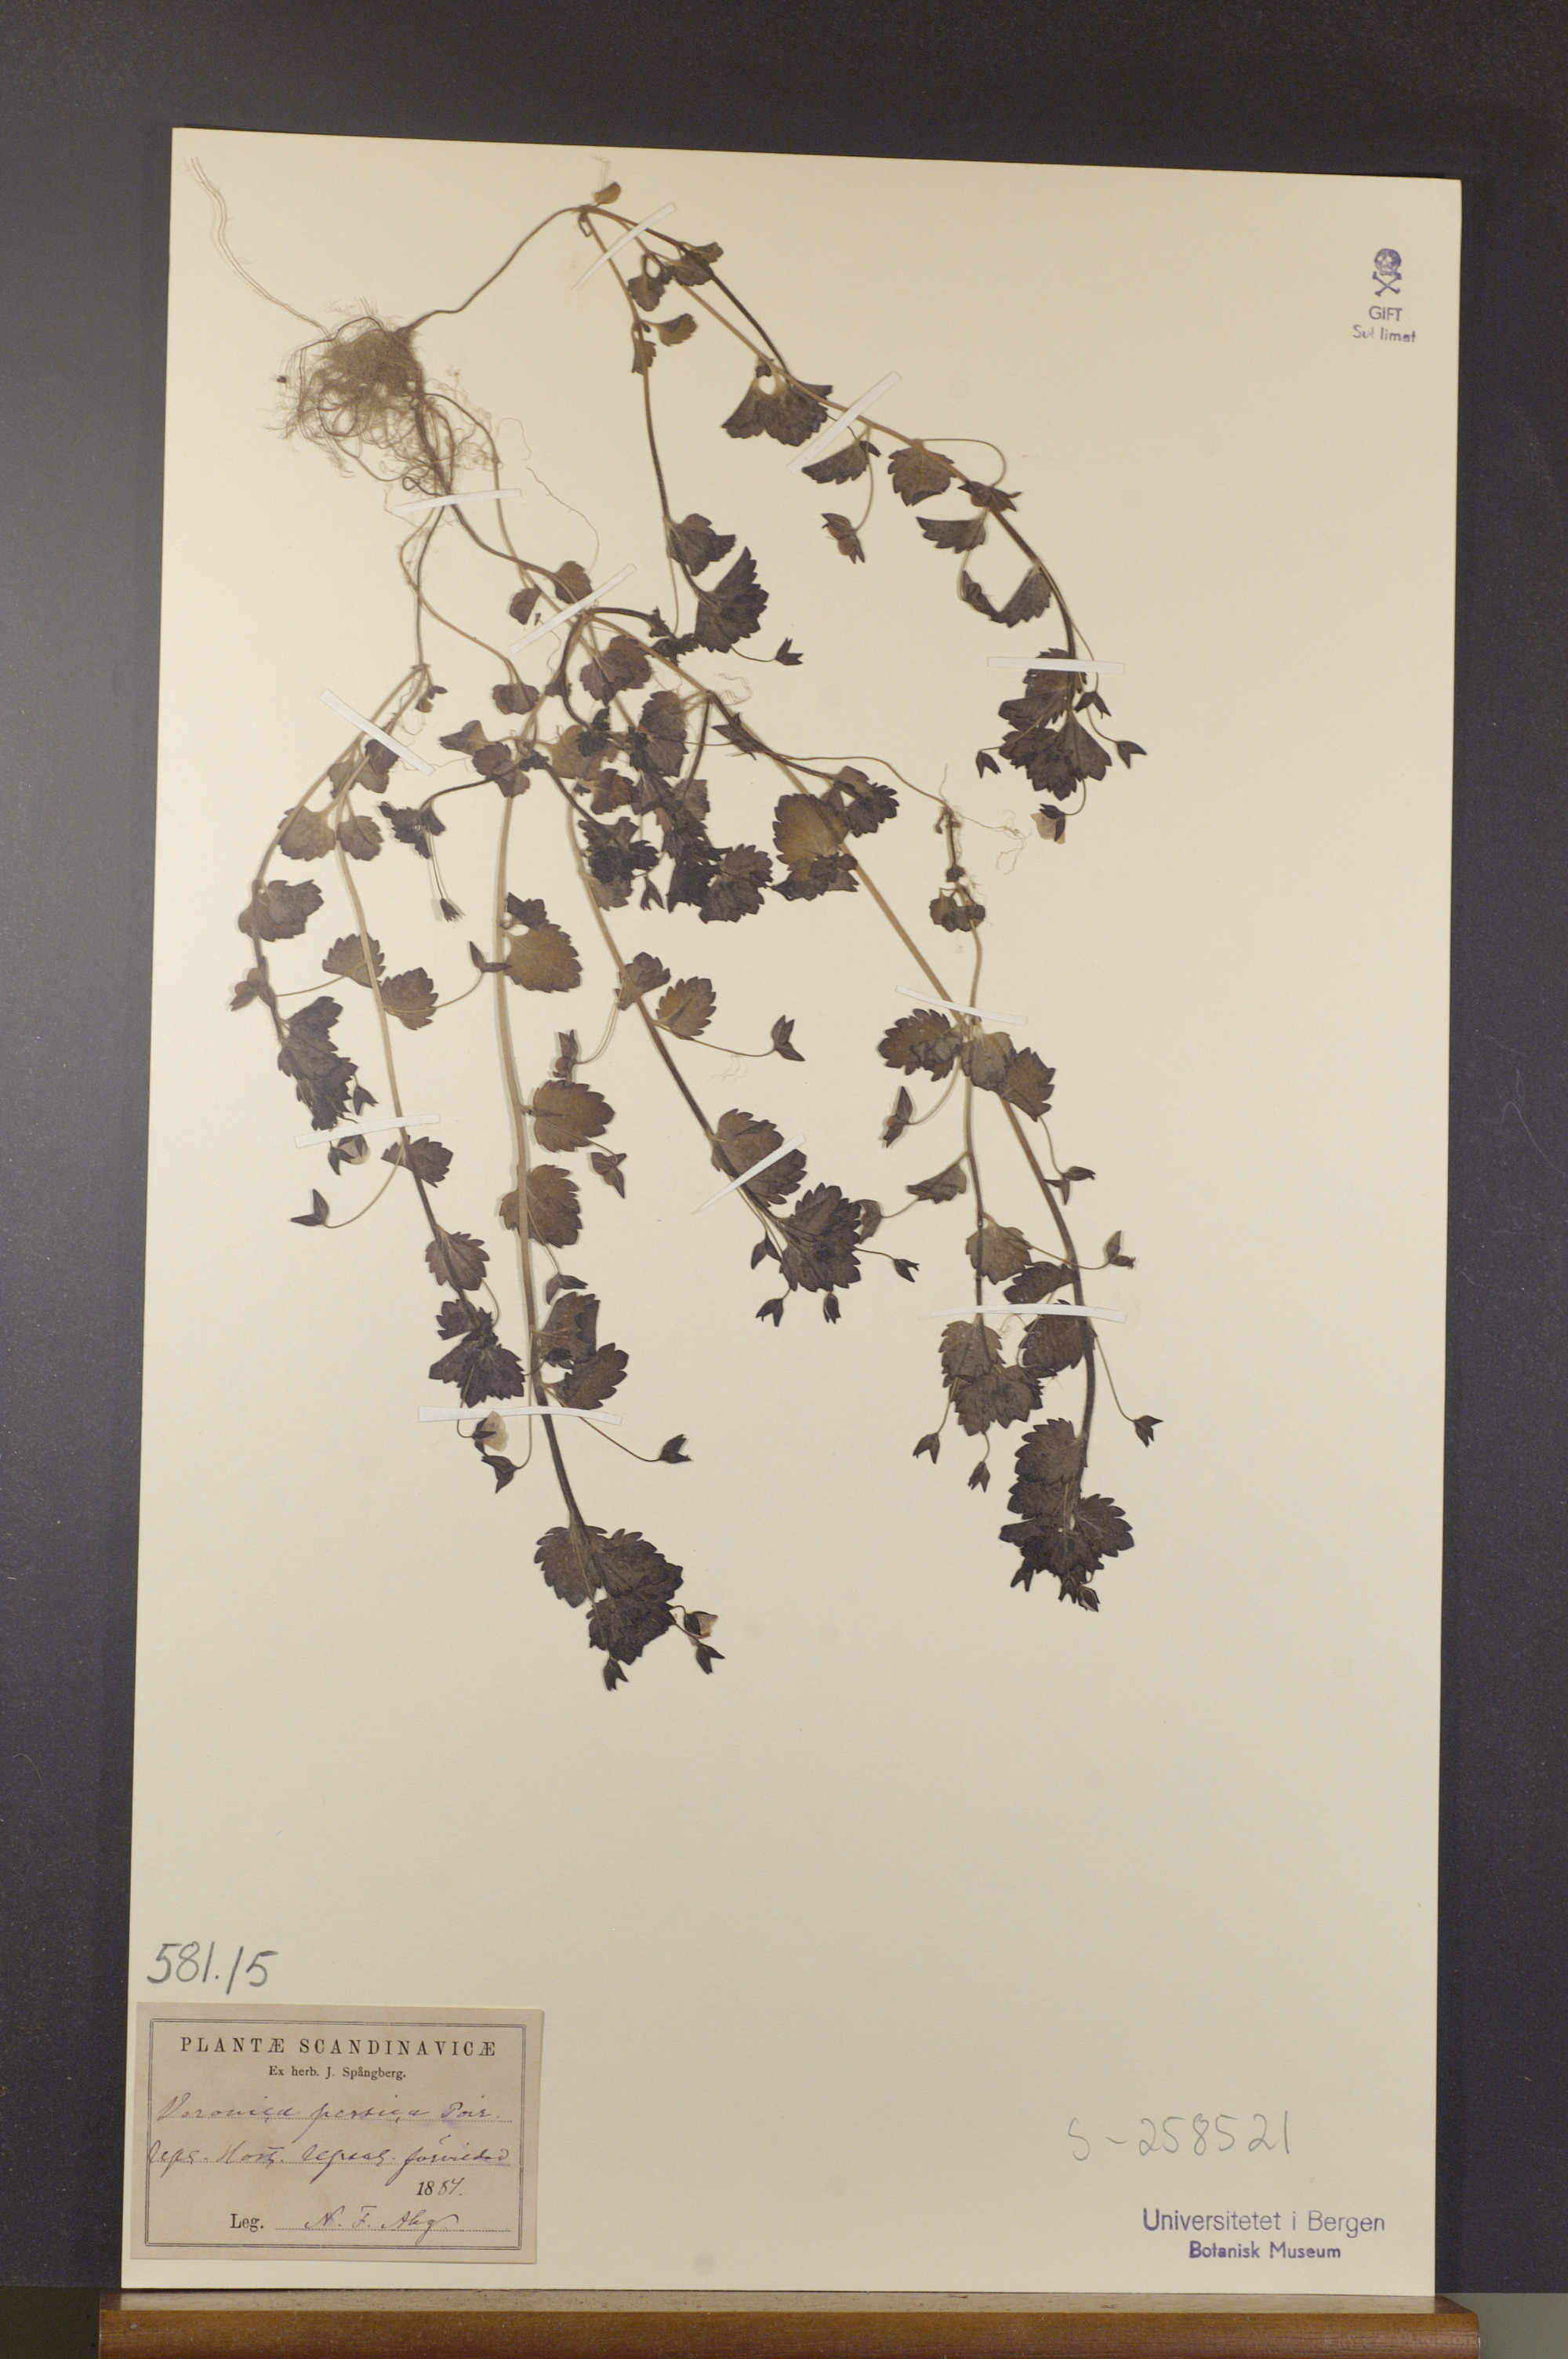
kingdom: Plantae
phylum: Tracheophyta
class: Magnoliopsida
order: Lamiales
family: Plantaginaceae
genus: Veronica
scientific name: Veronica persica
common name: Common field-speedwell
